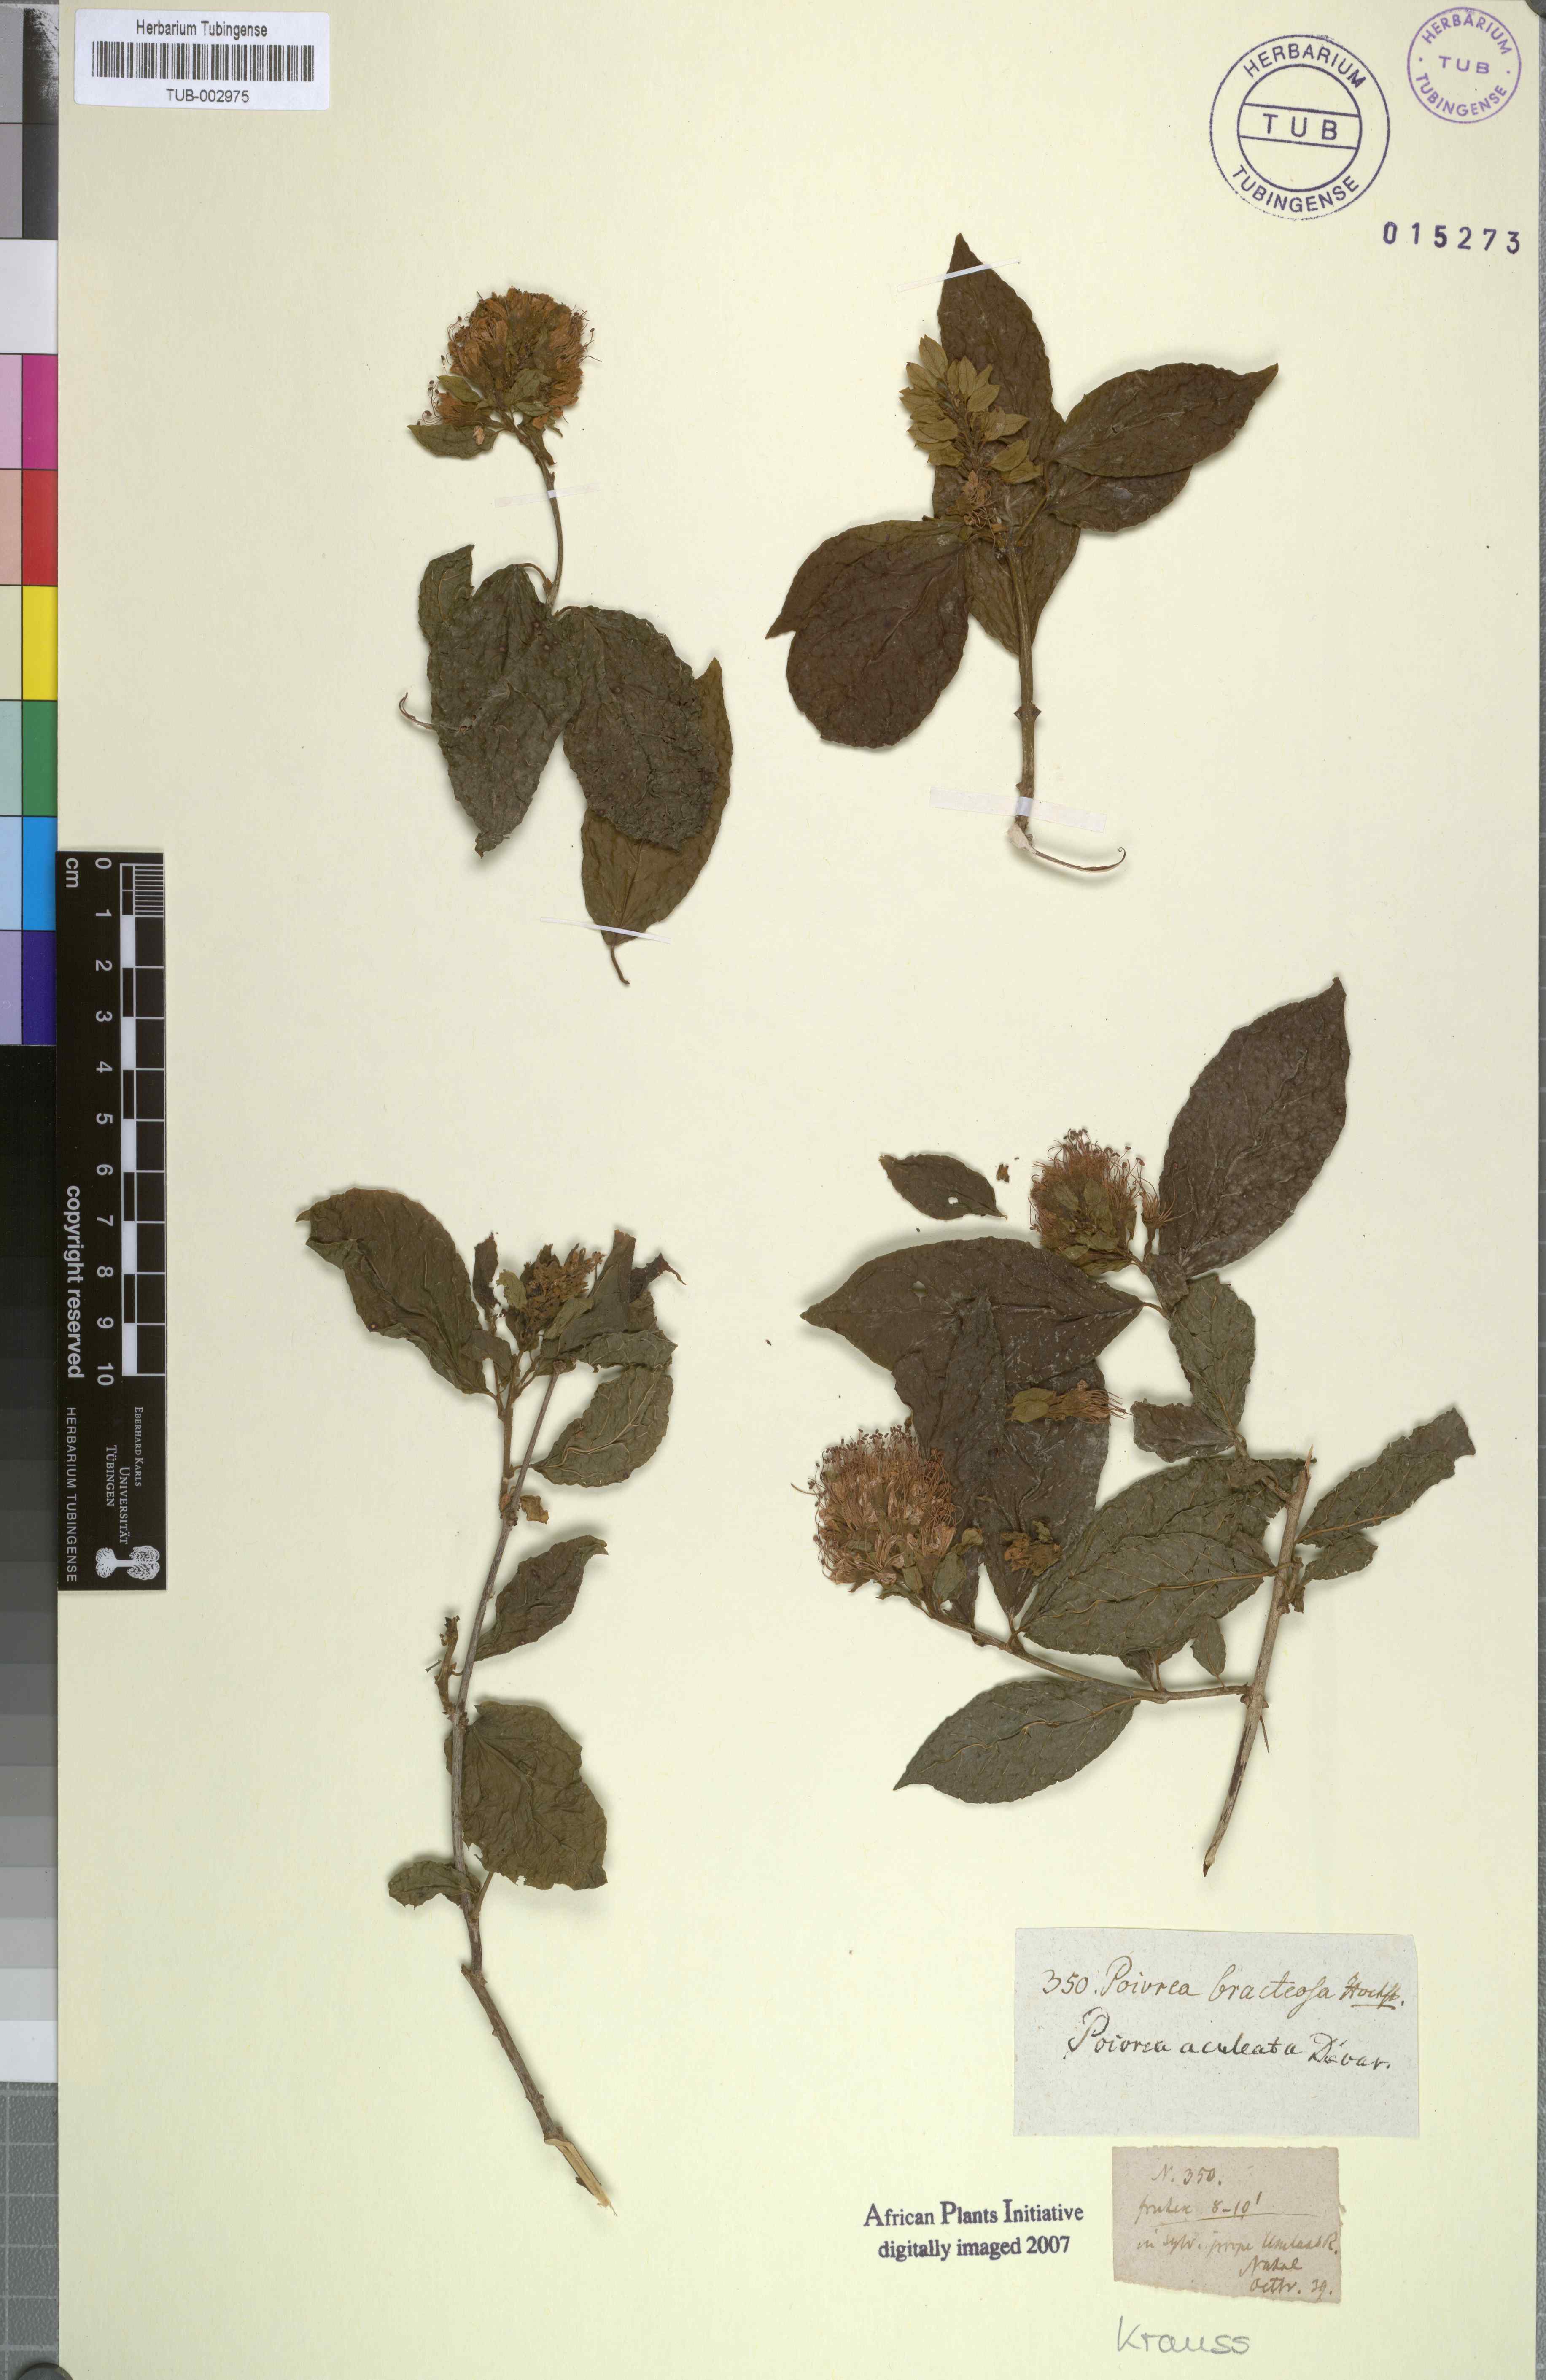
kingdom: Plantae
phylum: Tracheophyta
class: Magnoliopsida
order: Myrtales
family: Combretaceae
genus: Combretum
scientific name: Combretum aculeatum
